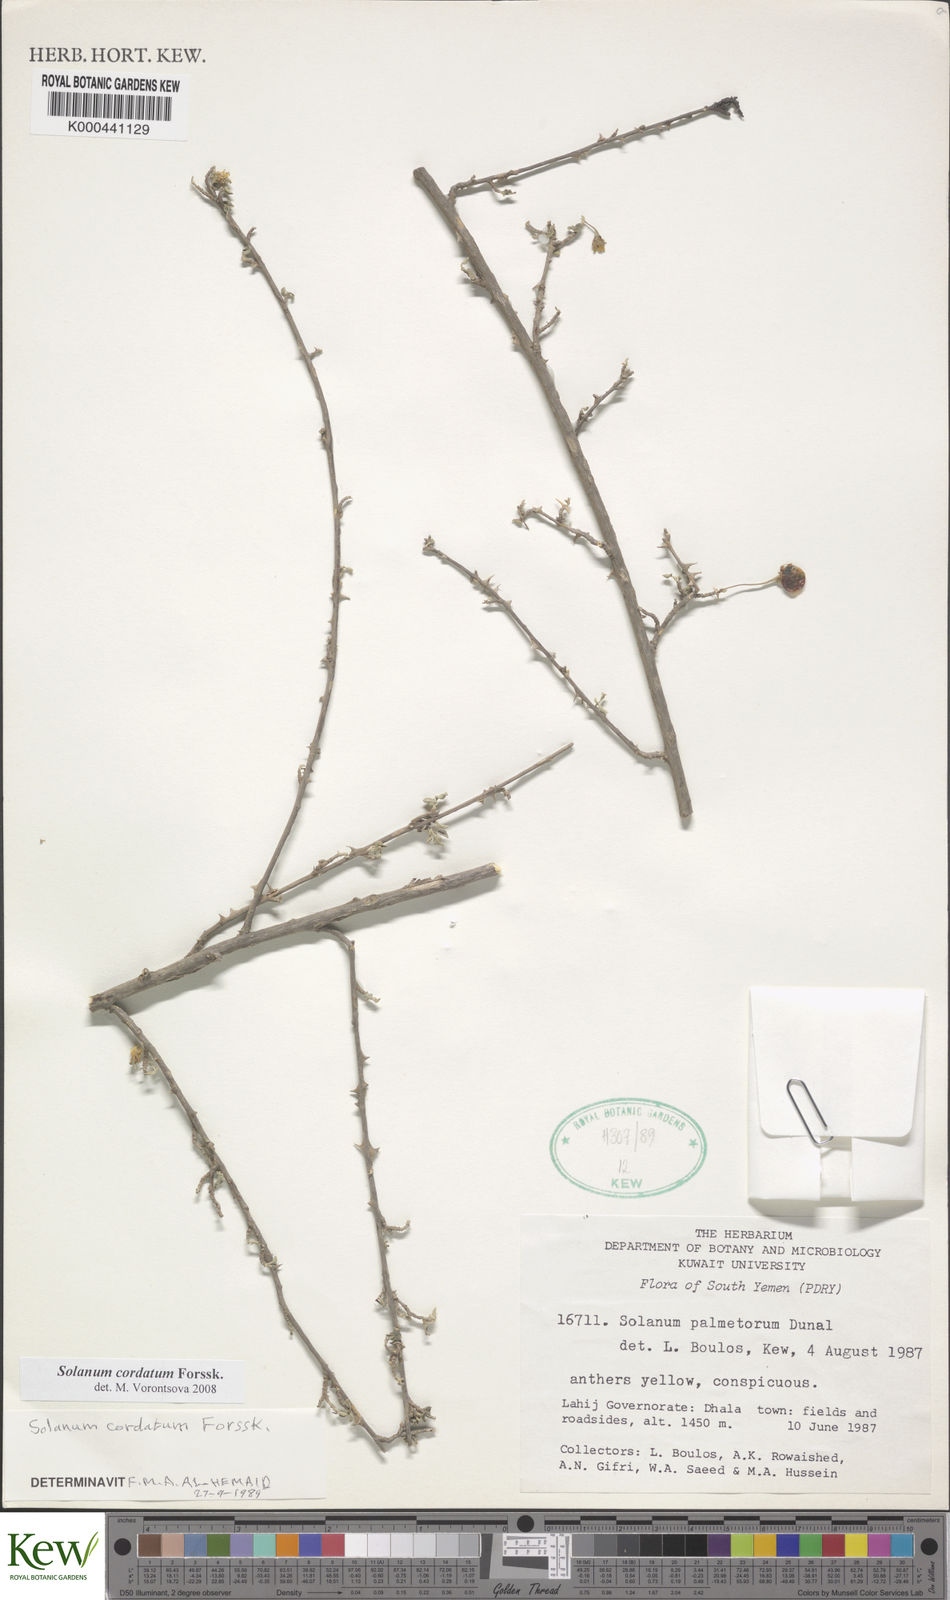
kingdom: Plantae
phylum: Tracheophyta
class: Magnoliopsida
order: Solanales
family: Solanaceae
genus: Solanum
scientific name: Solanum cordatum
